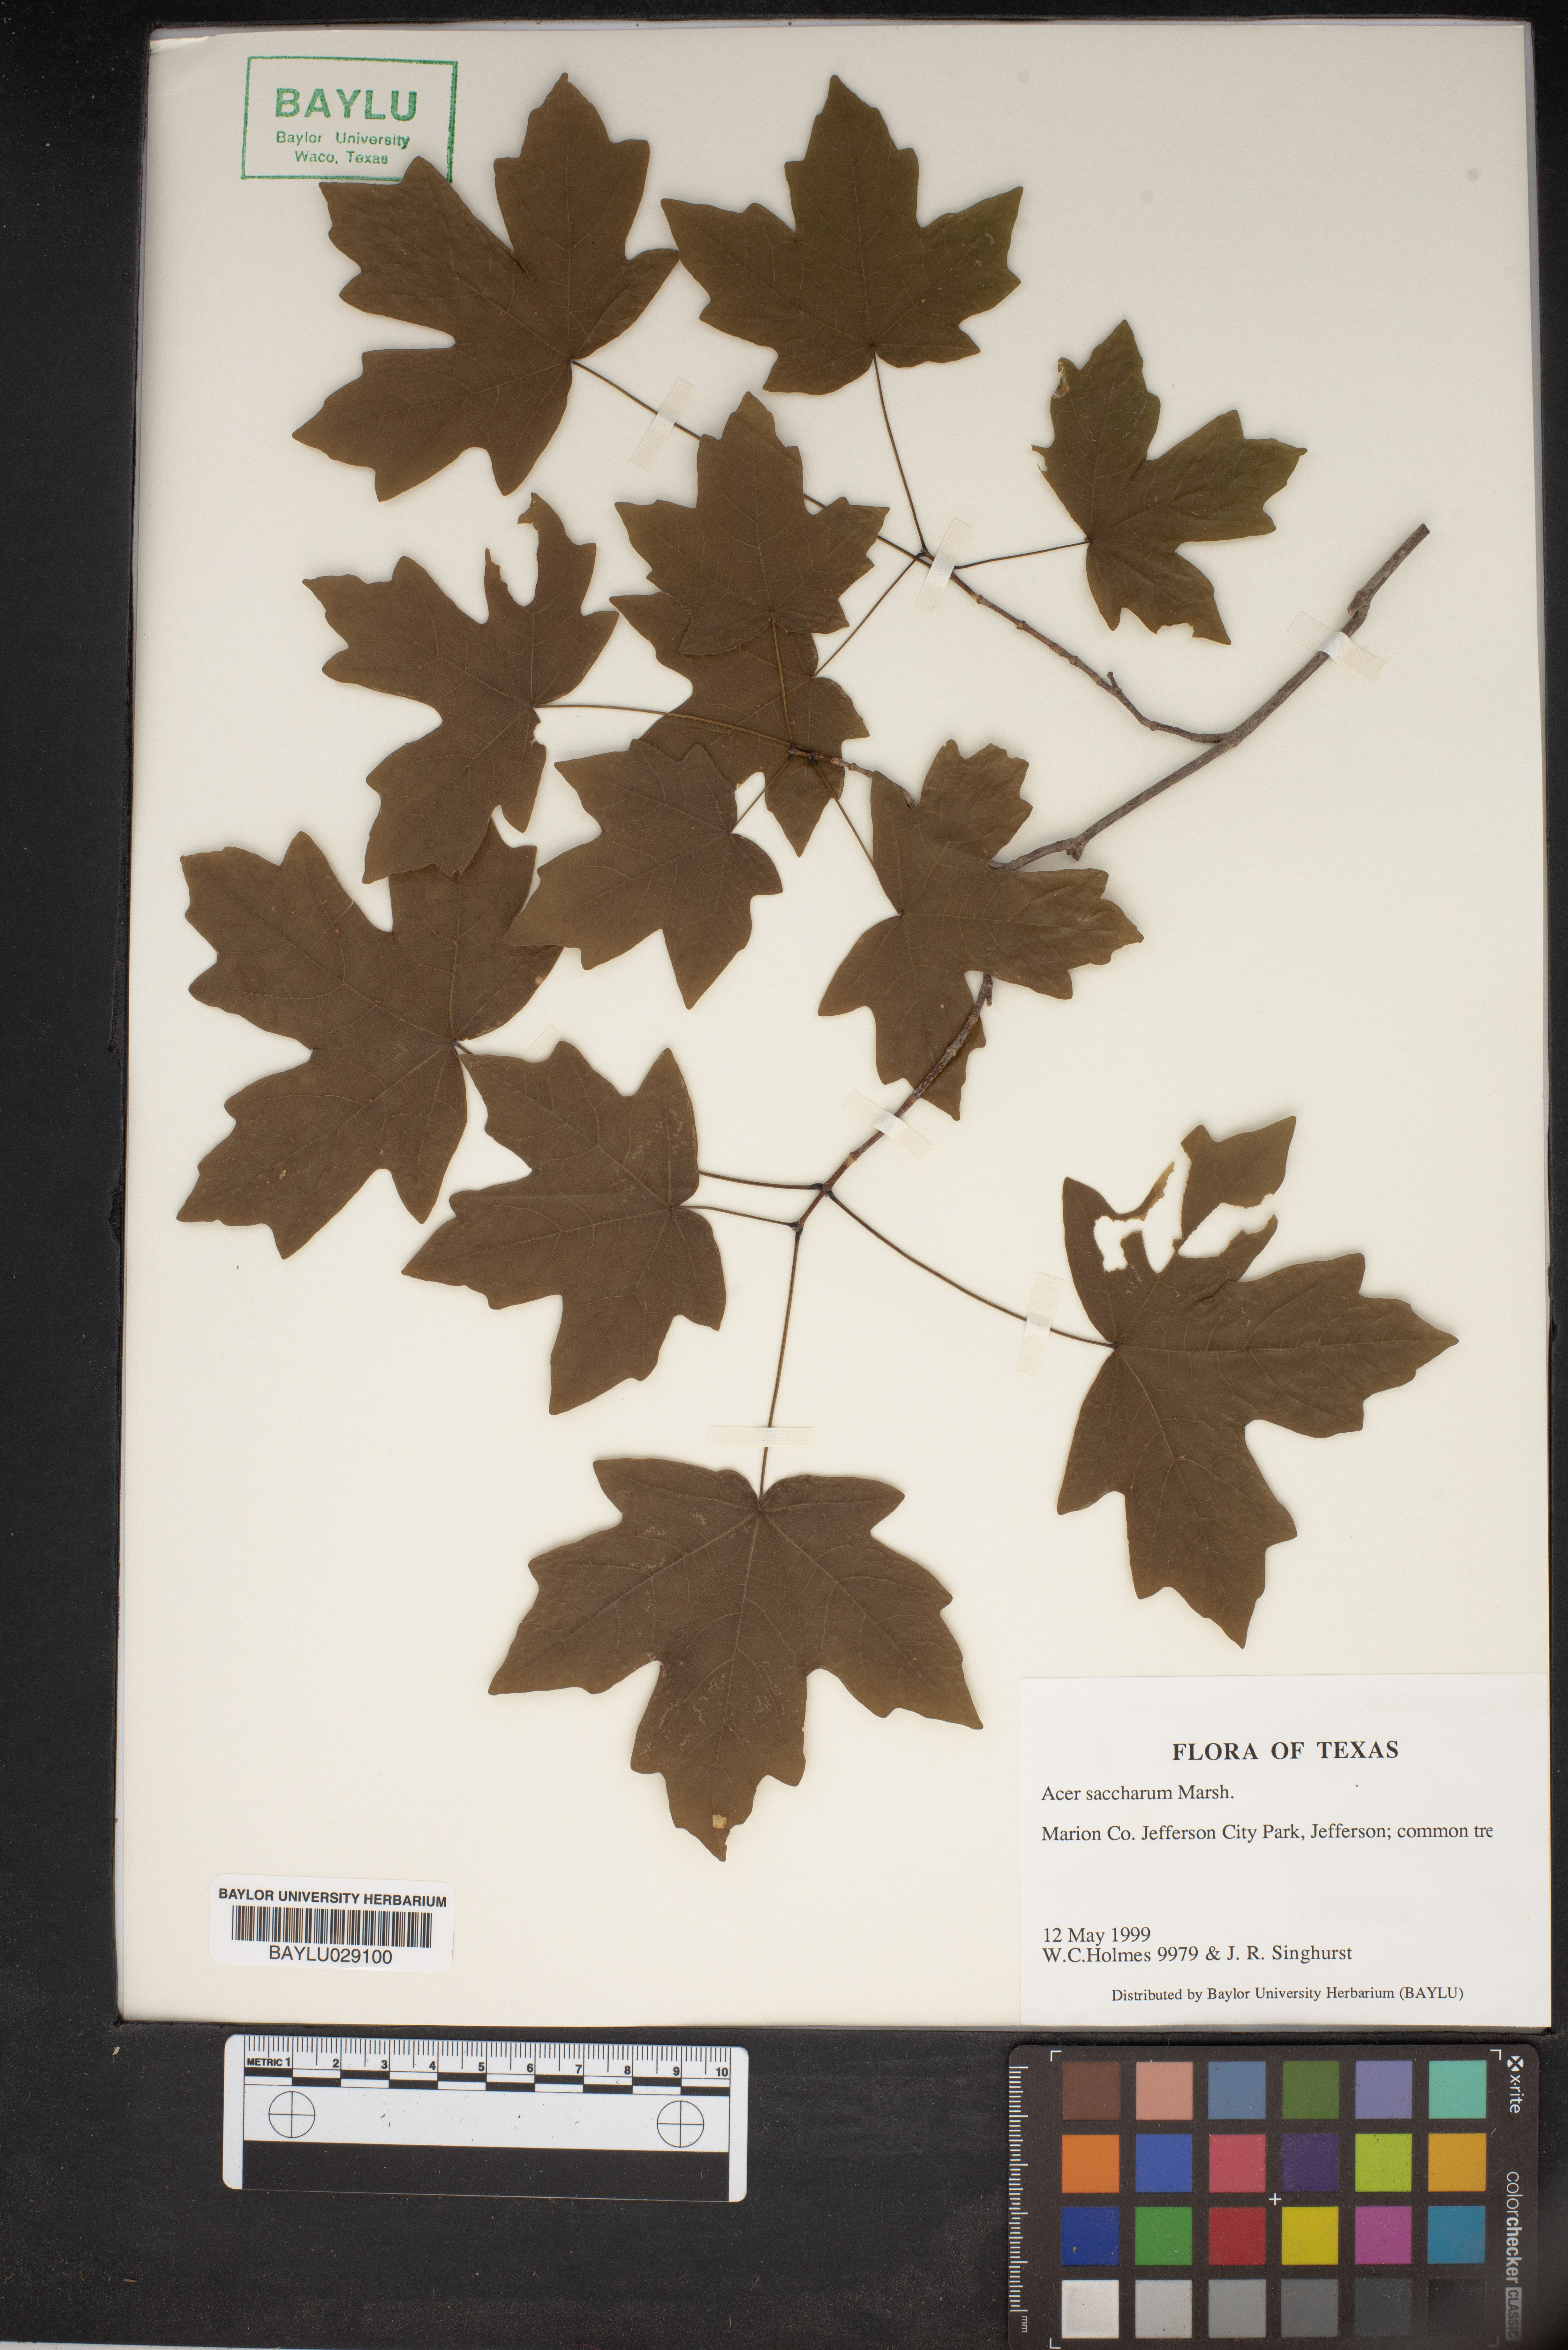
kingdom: Plantae
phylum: Tracheophyta
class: Magnoliopsida
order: Sapindales
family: Sapindaceae
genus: Acer
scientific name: Acer saccharum
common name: Sugar maple
